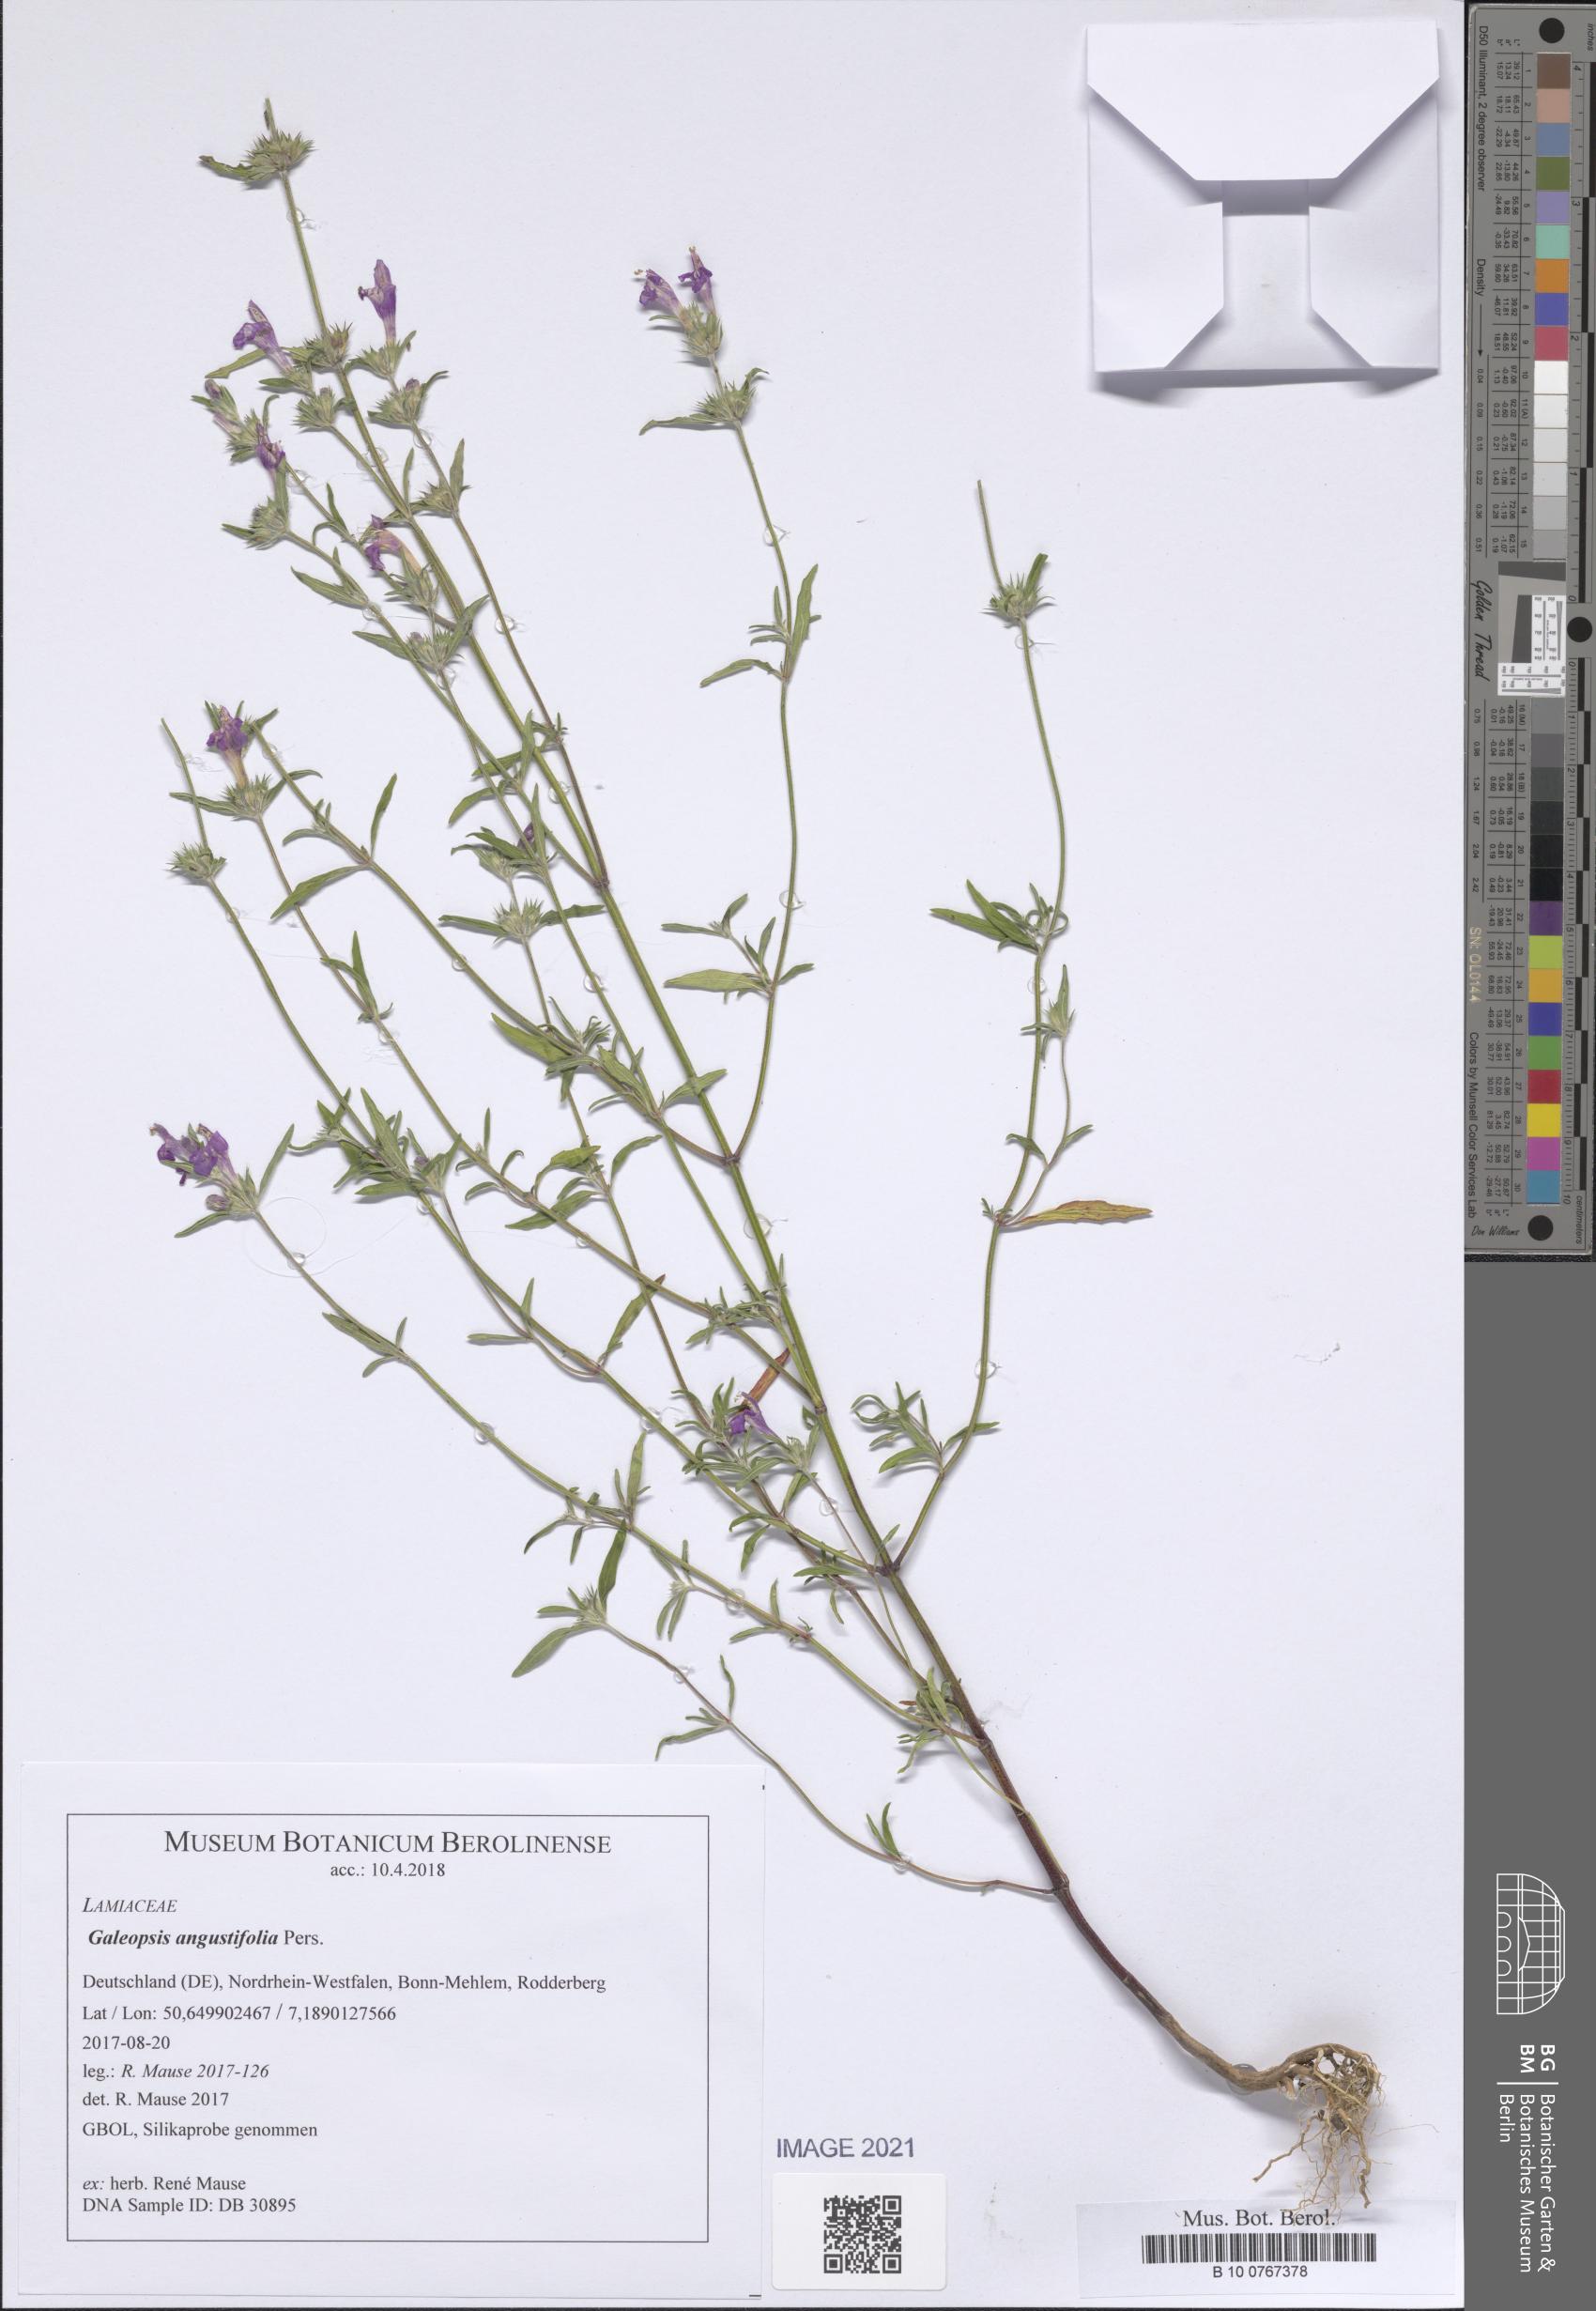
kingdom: Plantae
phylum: Tracheophyta
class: Magnoliopsida
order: Lamiales
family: Lamiaceae
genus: Galeopsis
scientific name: Galeopsis angustifolia
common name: Red hemp-nettle
